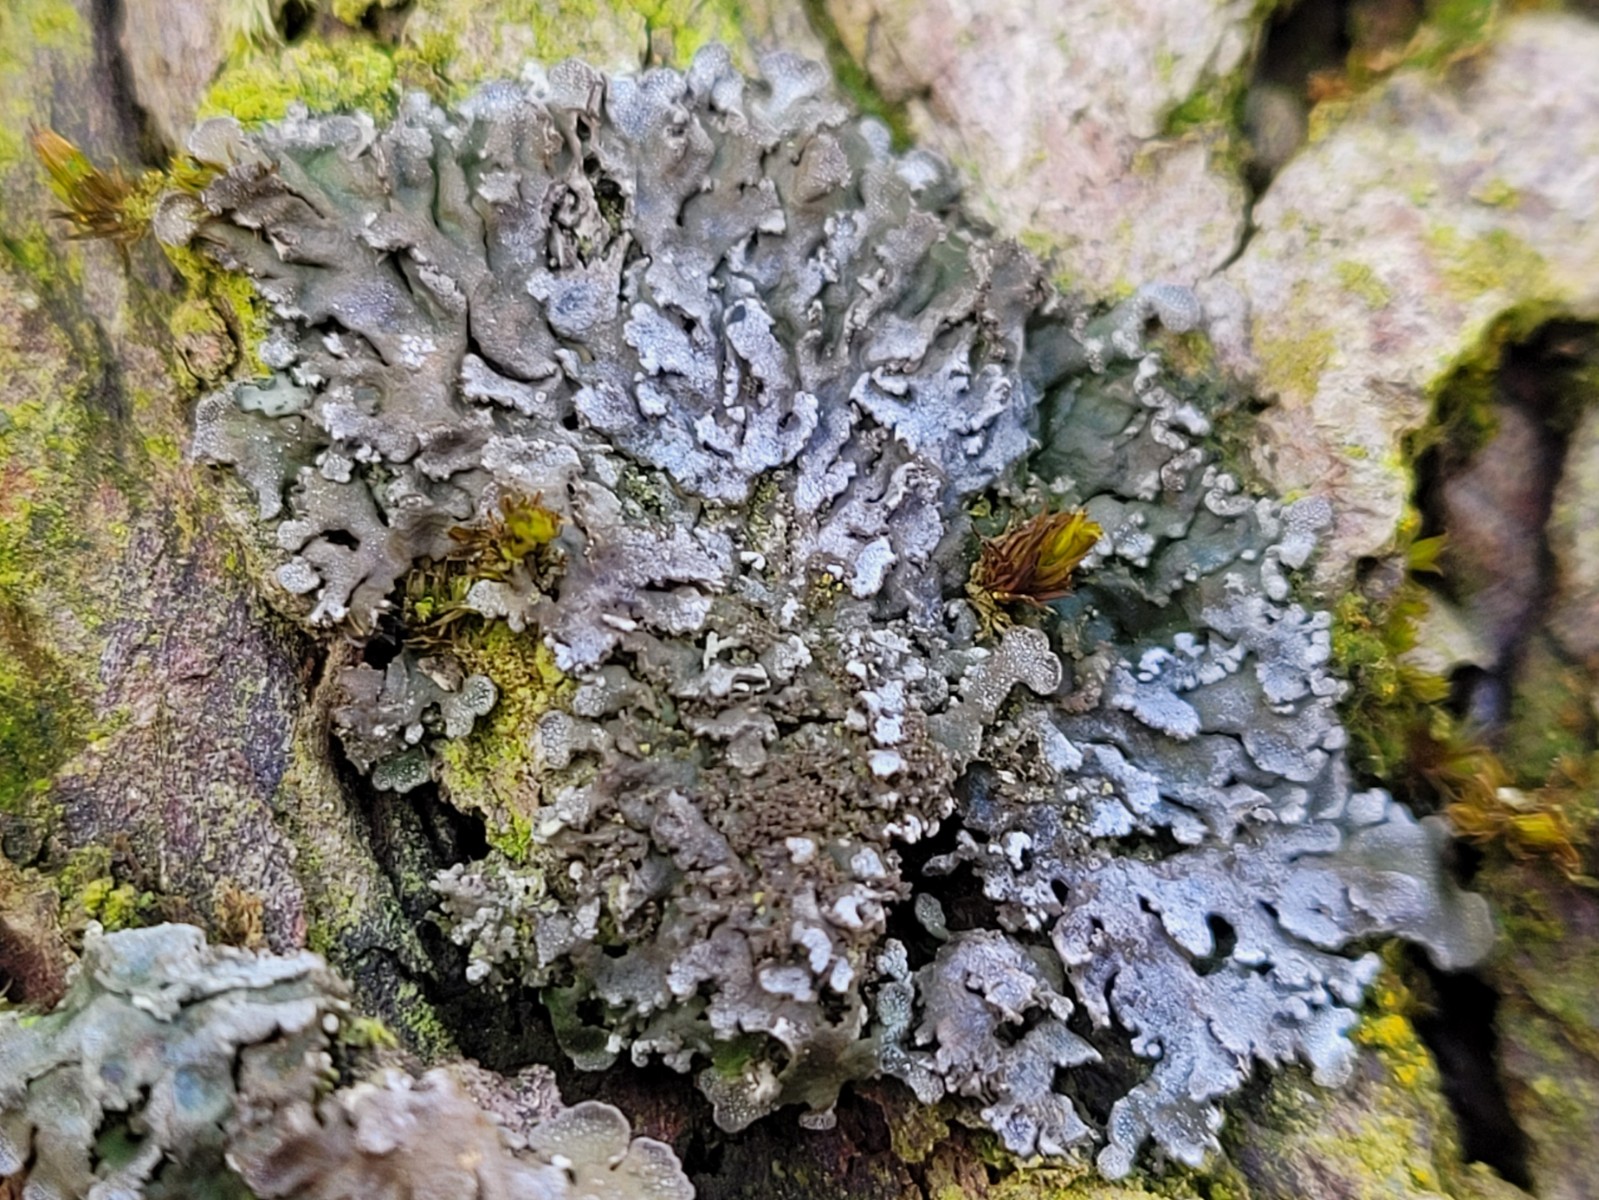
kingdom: Fungi
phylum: Ascomycota
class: Lecanoromycetes
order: Caliciales
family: Physciaceae
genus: Poeltonia
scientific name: Poeltonia grisea
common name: hvidgrå dugrosetlav
